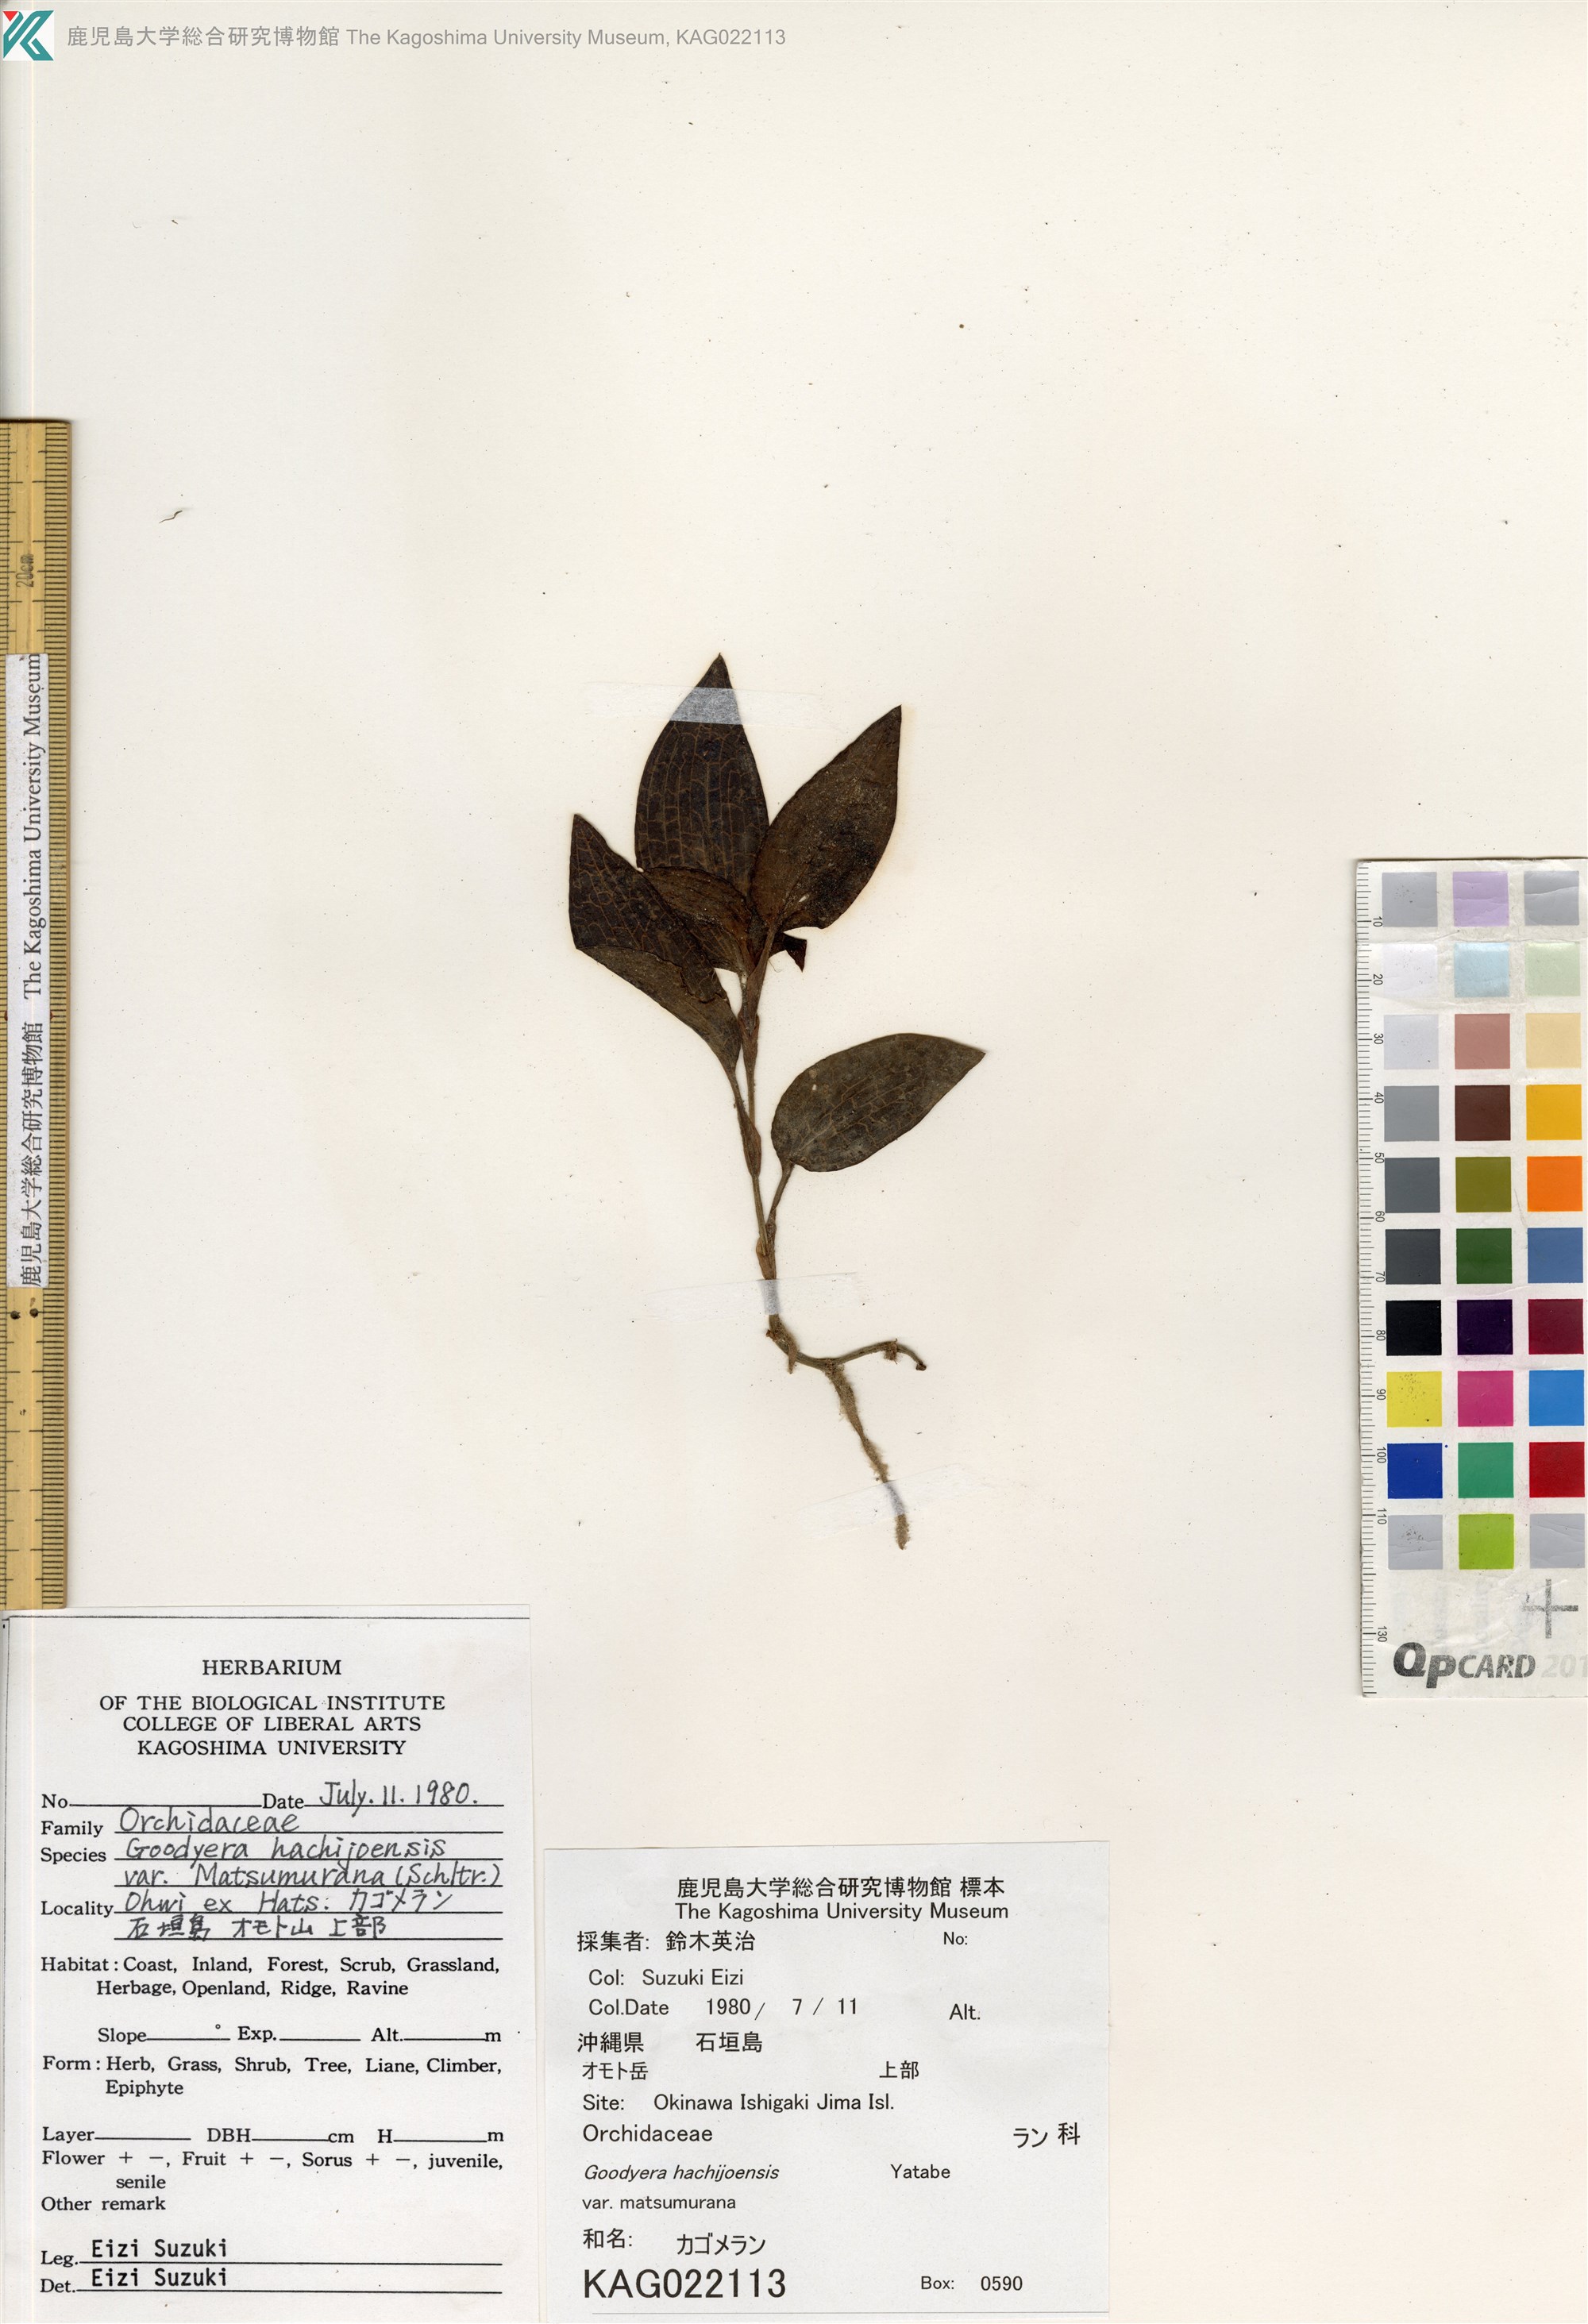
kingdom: Plantae
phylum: Tracheophyta
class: Liliopsida
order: Asparagales
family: Orchidaceae
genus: Goodyera
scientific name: Goodyera hachijoensis
